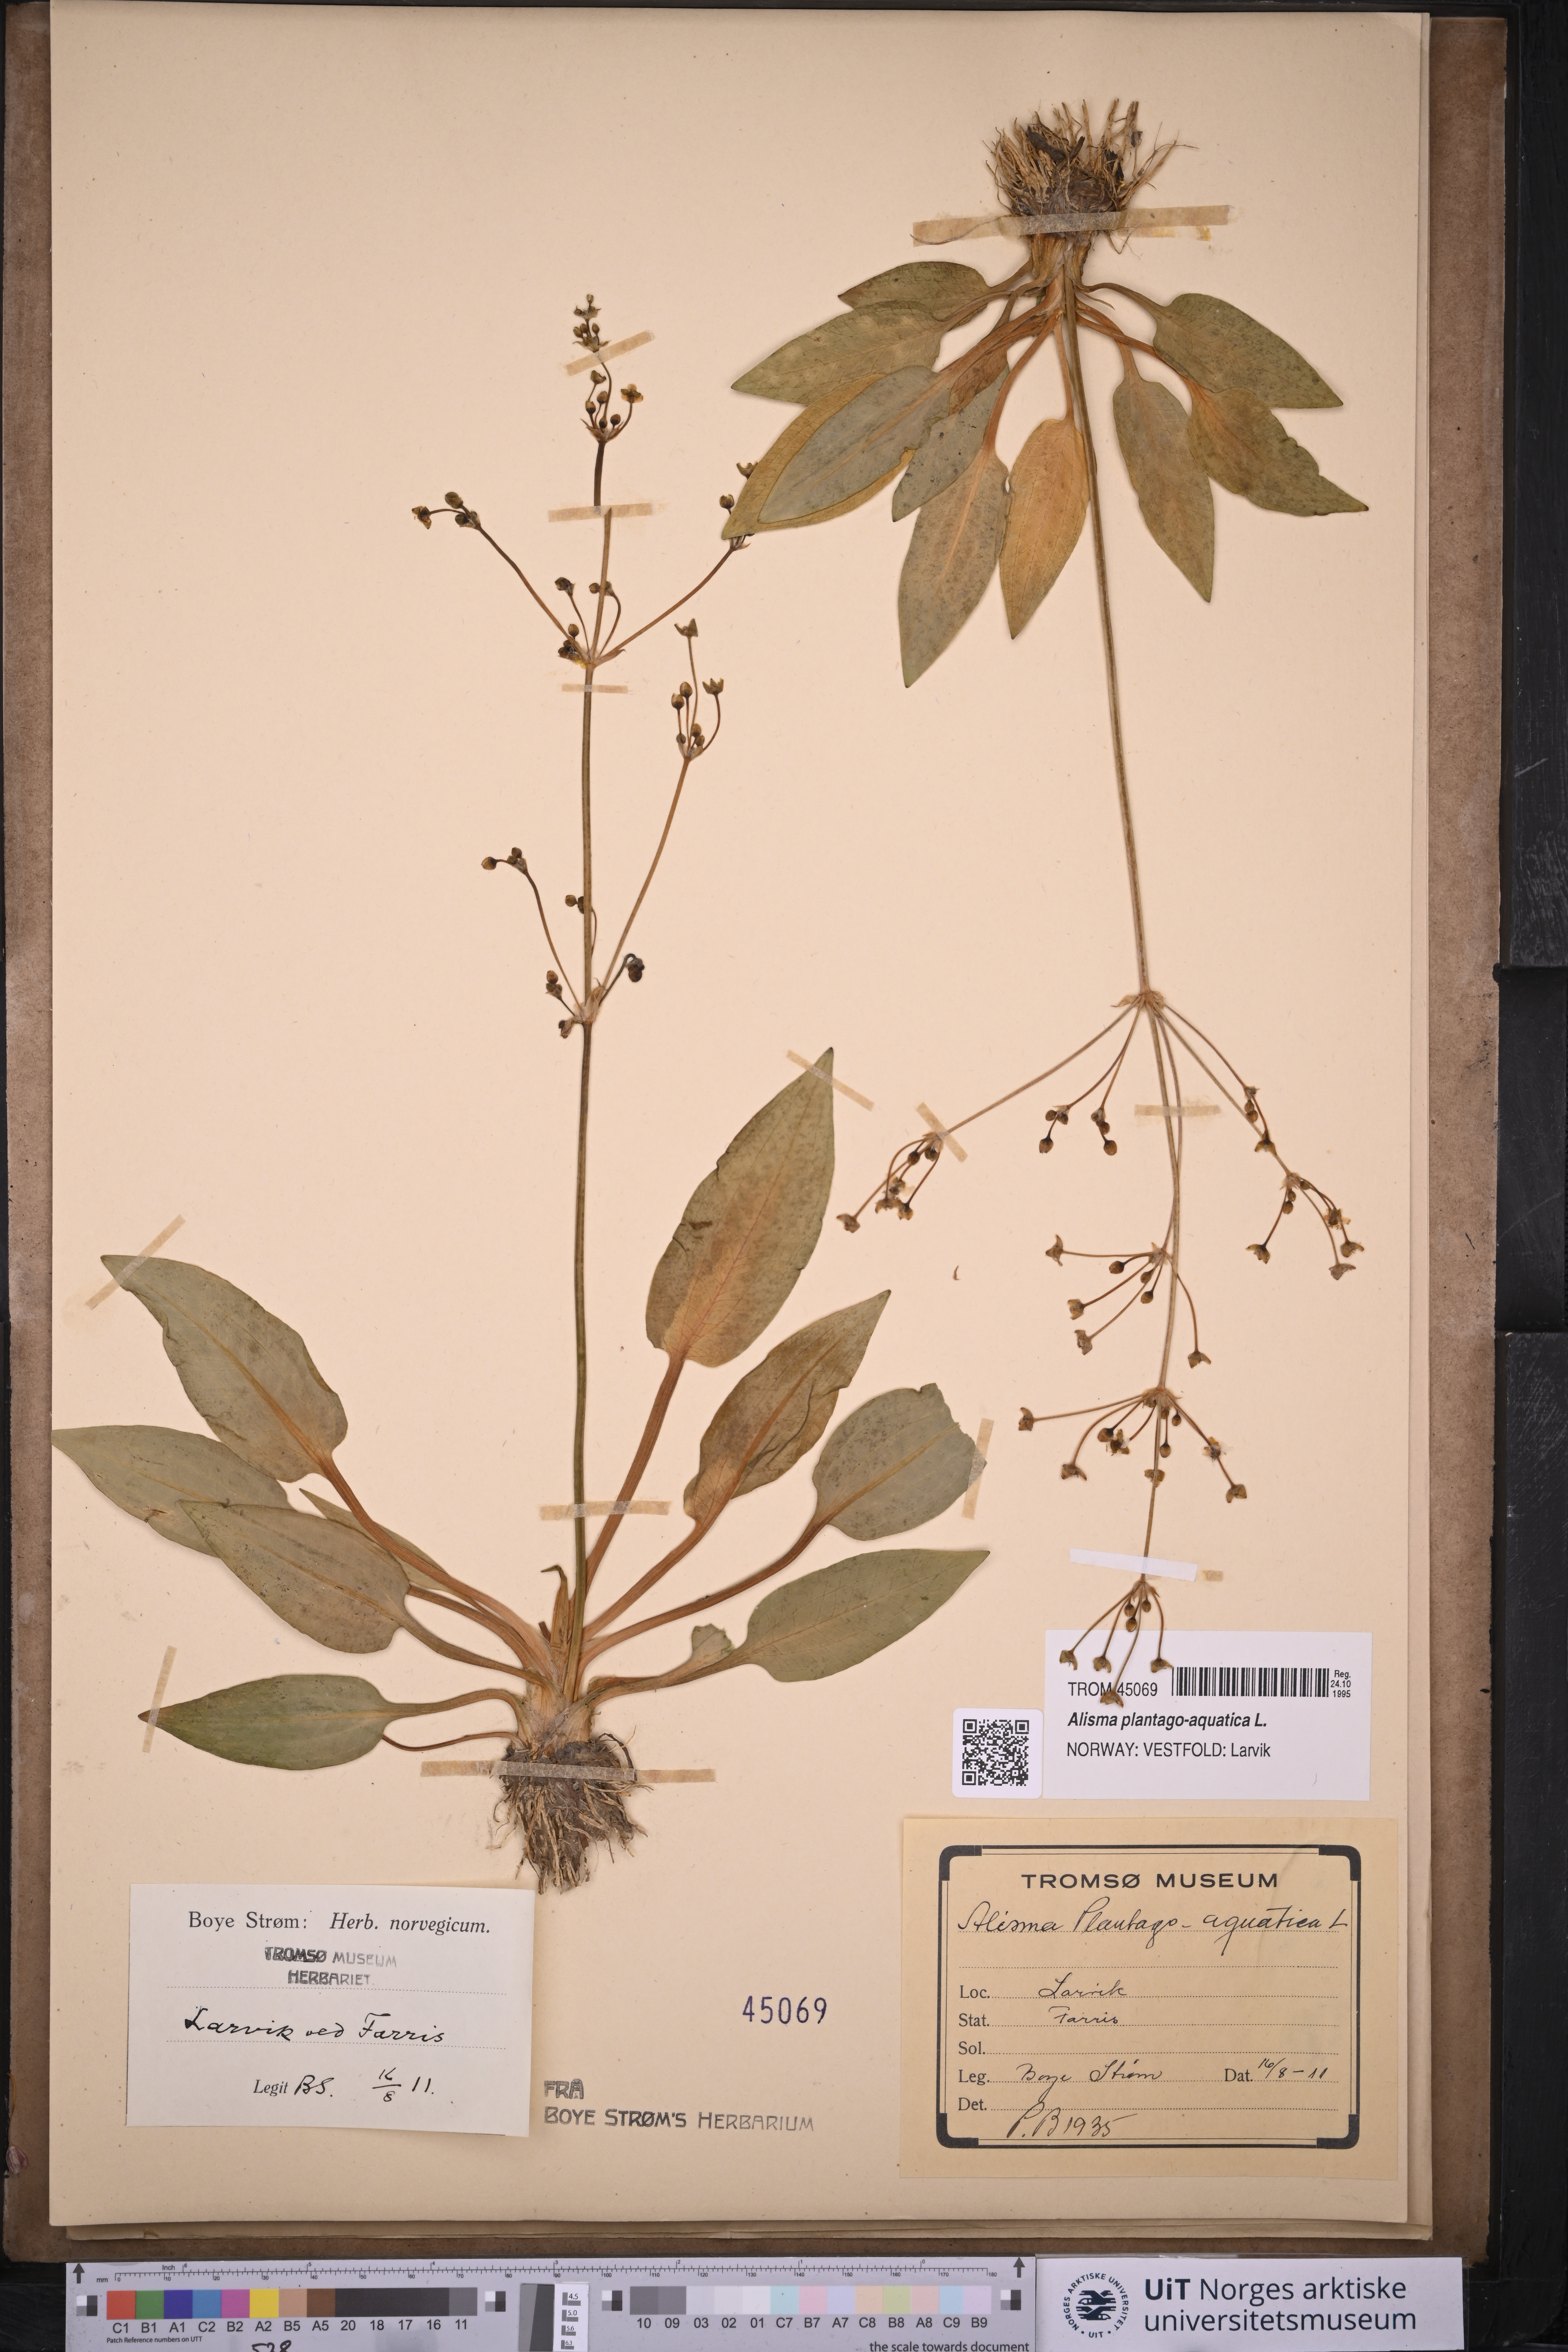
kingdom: Plantae
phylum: Tracheophyta
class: Liliopsida
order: Alismatales
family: Alismataceae
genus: Alisma
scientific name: Alisma plantago-aquatica
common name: Water-plantain
